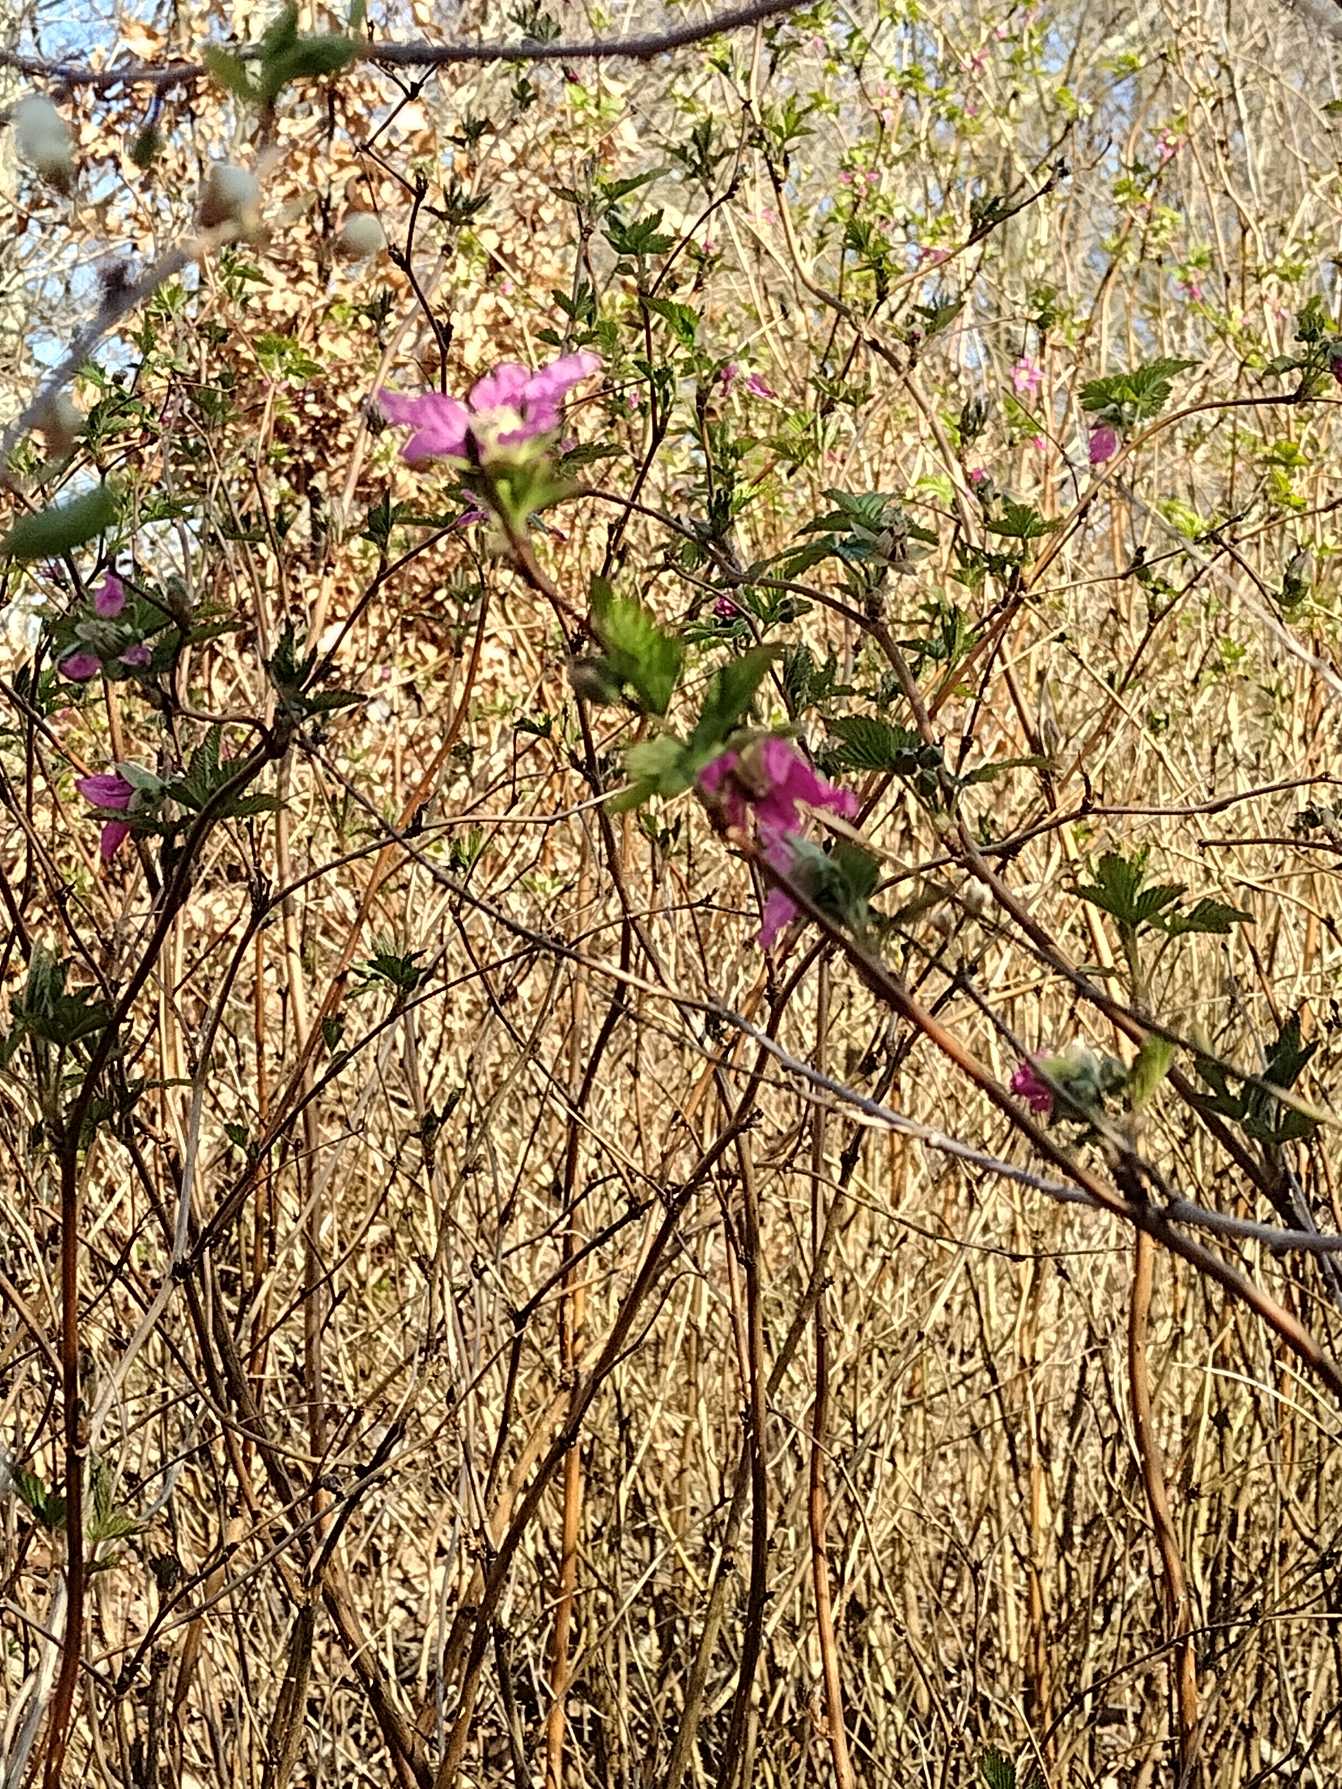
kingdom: Plantae
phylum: Tracheophyta
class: Magnoliopsida
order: Rosales
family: Rosaceae
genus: Rubus
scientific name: Rubus spectabilis
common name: Laksebær
